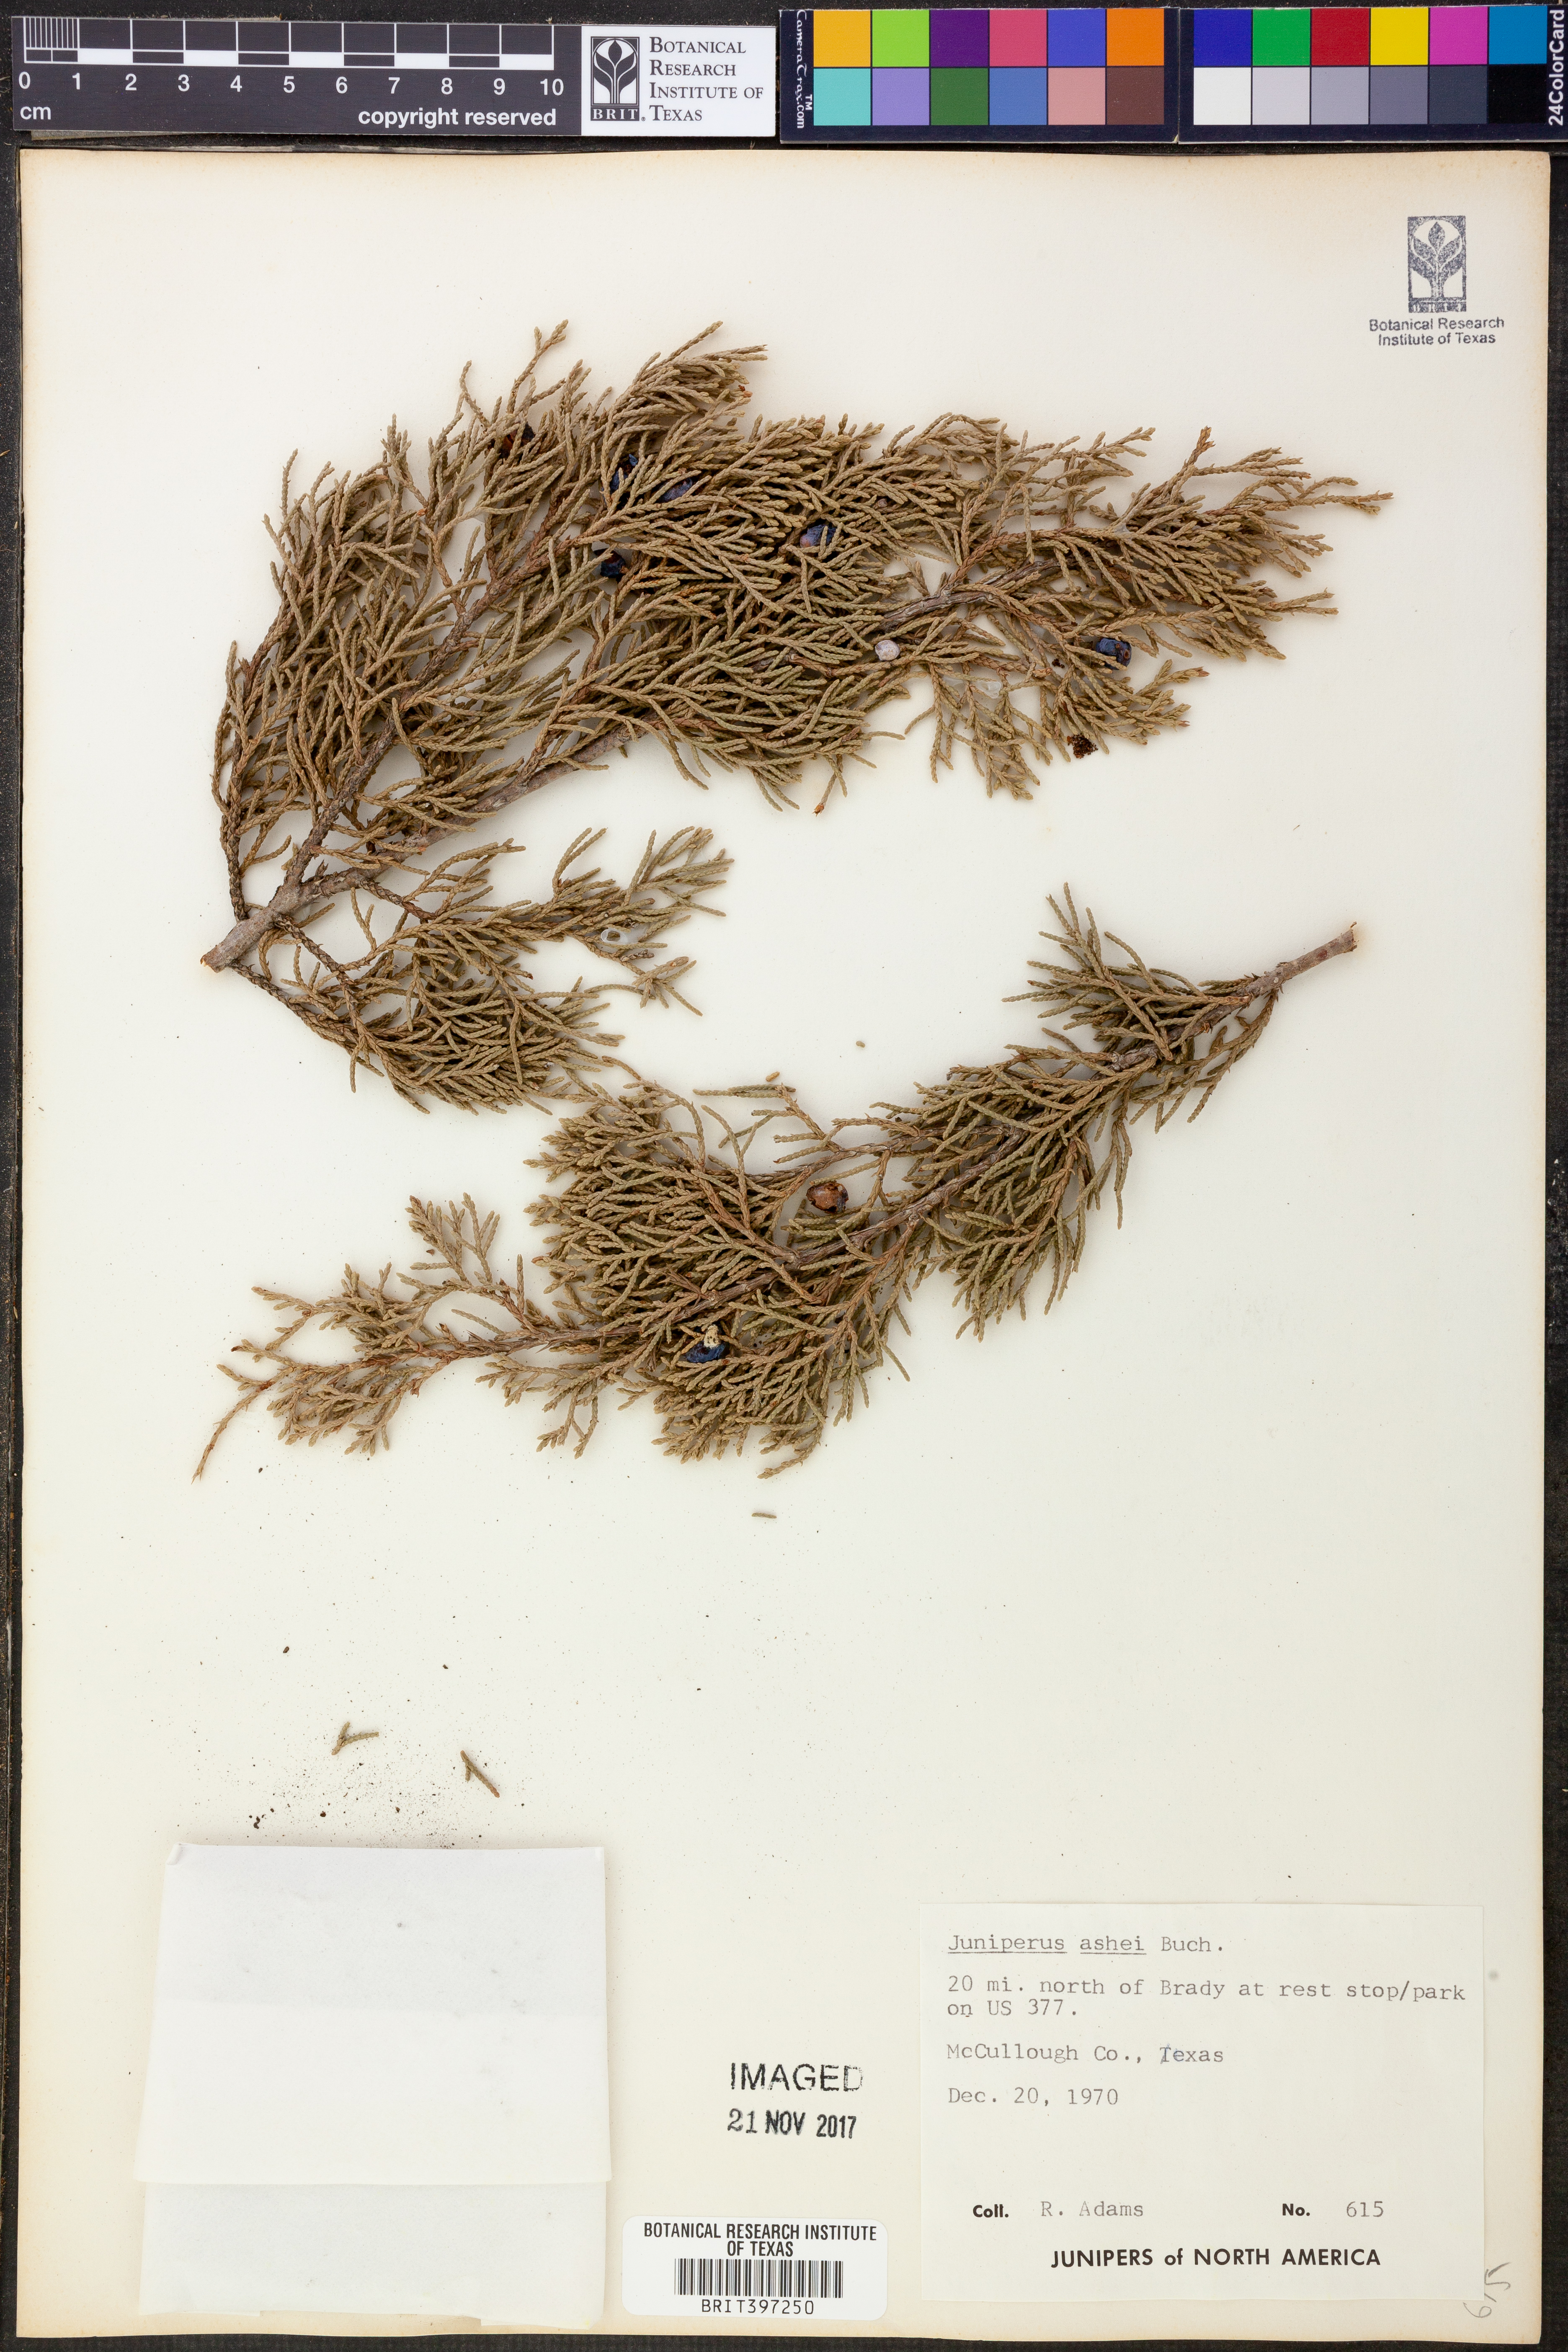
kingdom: Plantae
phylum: Tracheophyta
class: Pinopsida
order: Pinales
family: Cupressaceae
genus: Juniperus
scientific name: Juniperus ashei
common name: Mexican juniper
